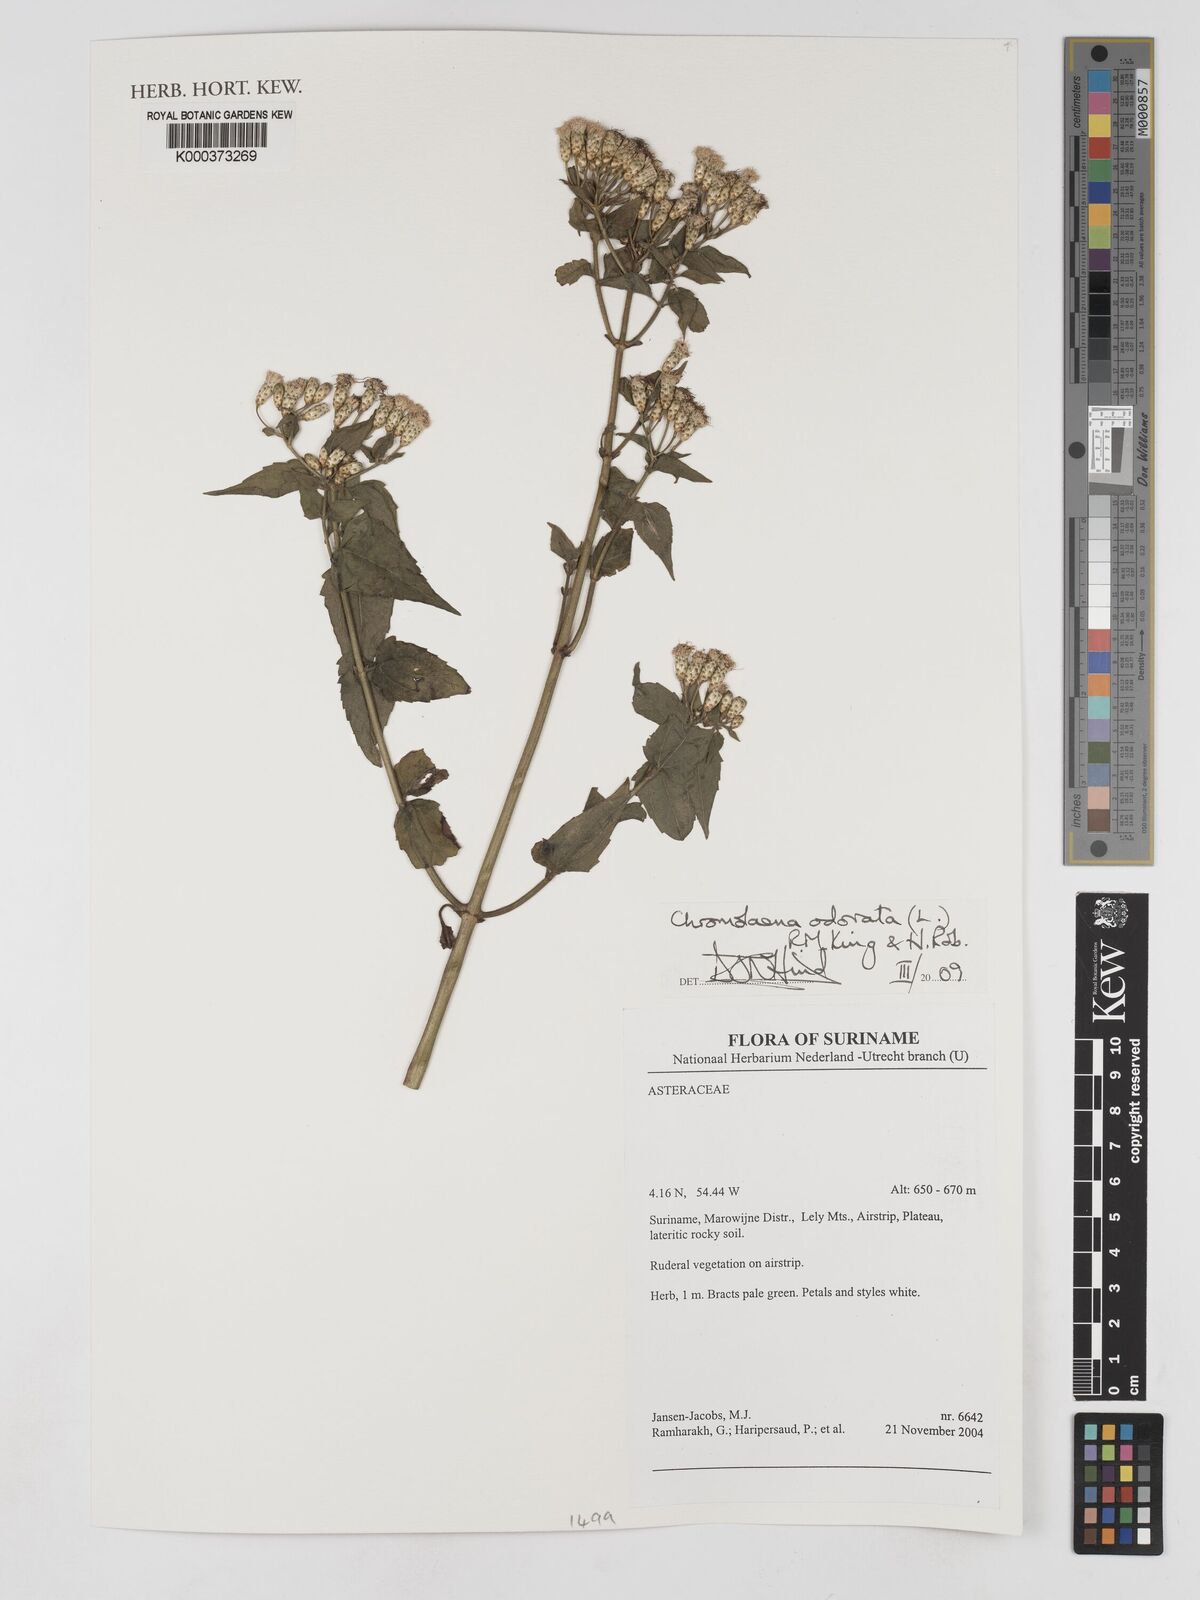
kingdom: Plantae
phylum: Tracheophyta
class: Magnoliopsida
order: Asterales
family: Asteraceae
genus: Chromolaena
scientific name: Chromolaena odorata
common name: Siamweed
